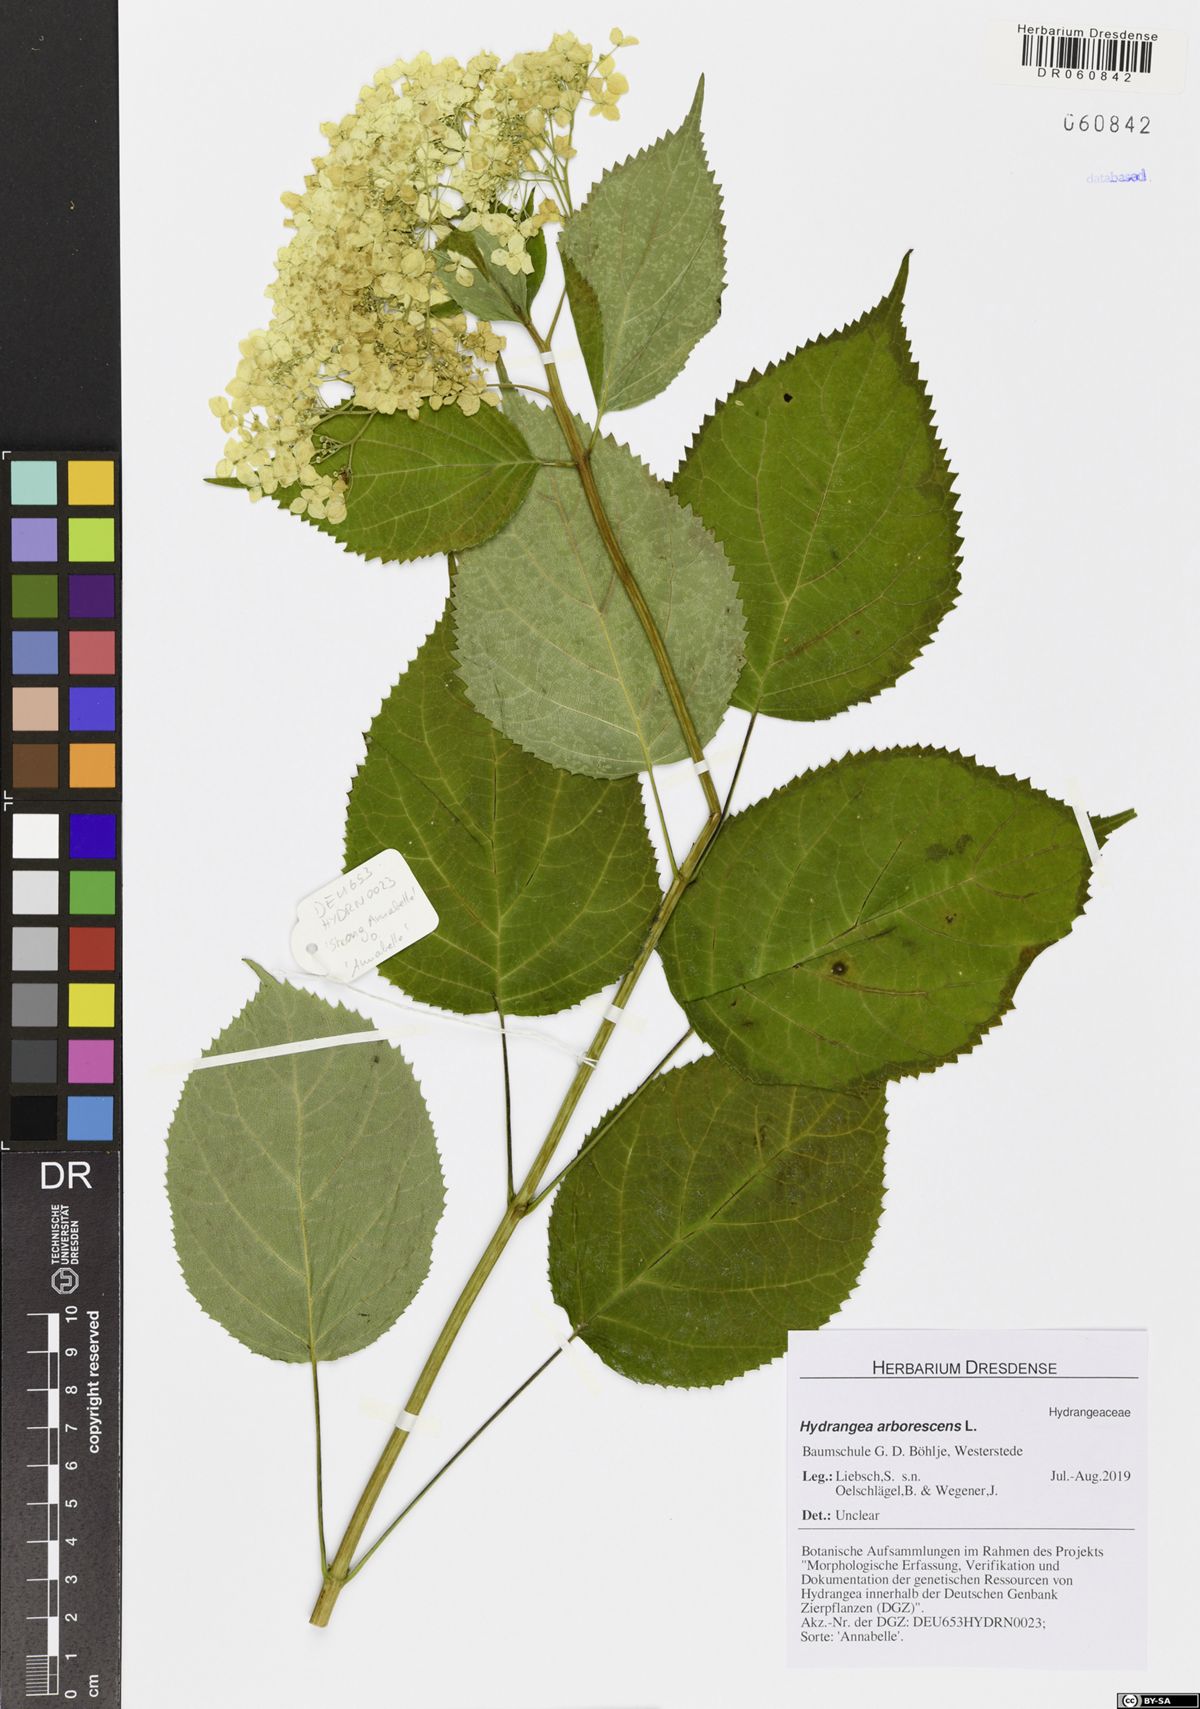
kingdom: Plantae
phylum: Tracheophyta
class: Magnoliopsida
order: Cornales
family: Hydrangeaceae
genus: Hydrangea
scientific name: Hydrangea arborescens
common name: Sevenbark
